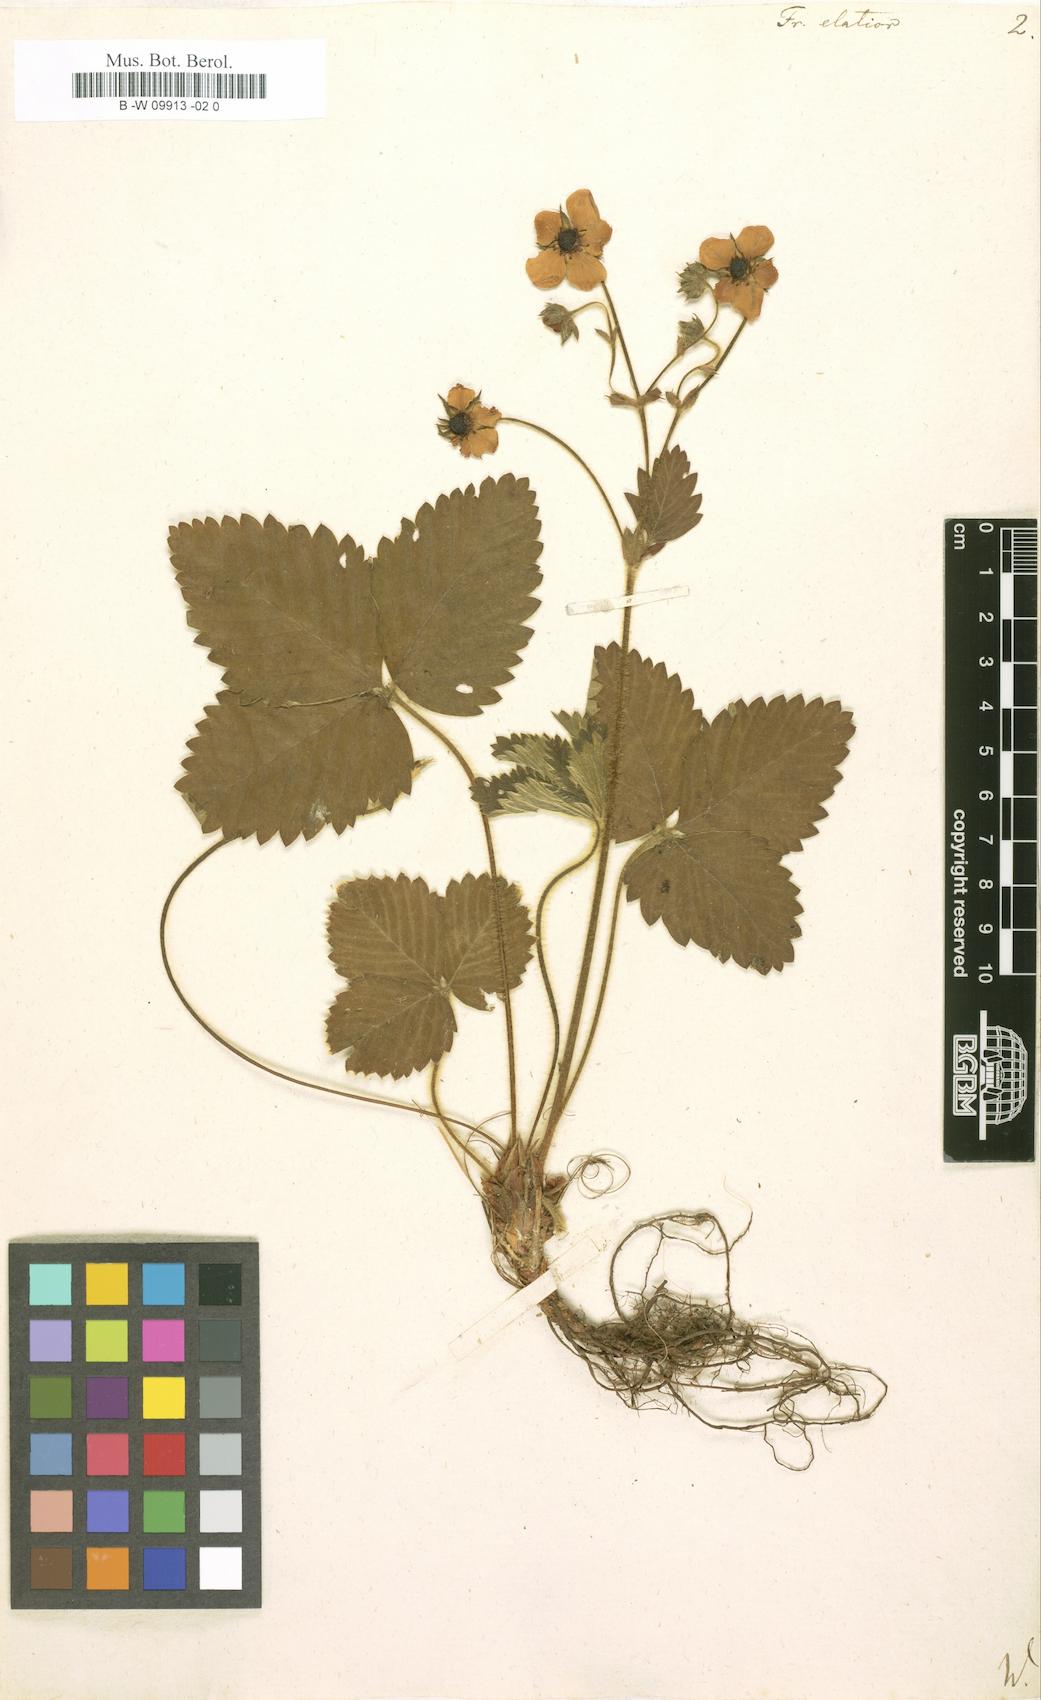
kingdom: Plantae
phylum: Tracheophyta
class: Magnoliopsida
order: Rosales
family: Rosaceae
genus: Fragaria
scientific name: Fragaria
